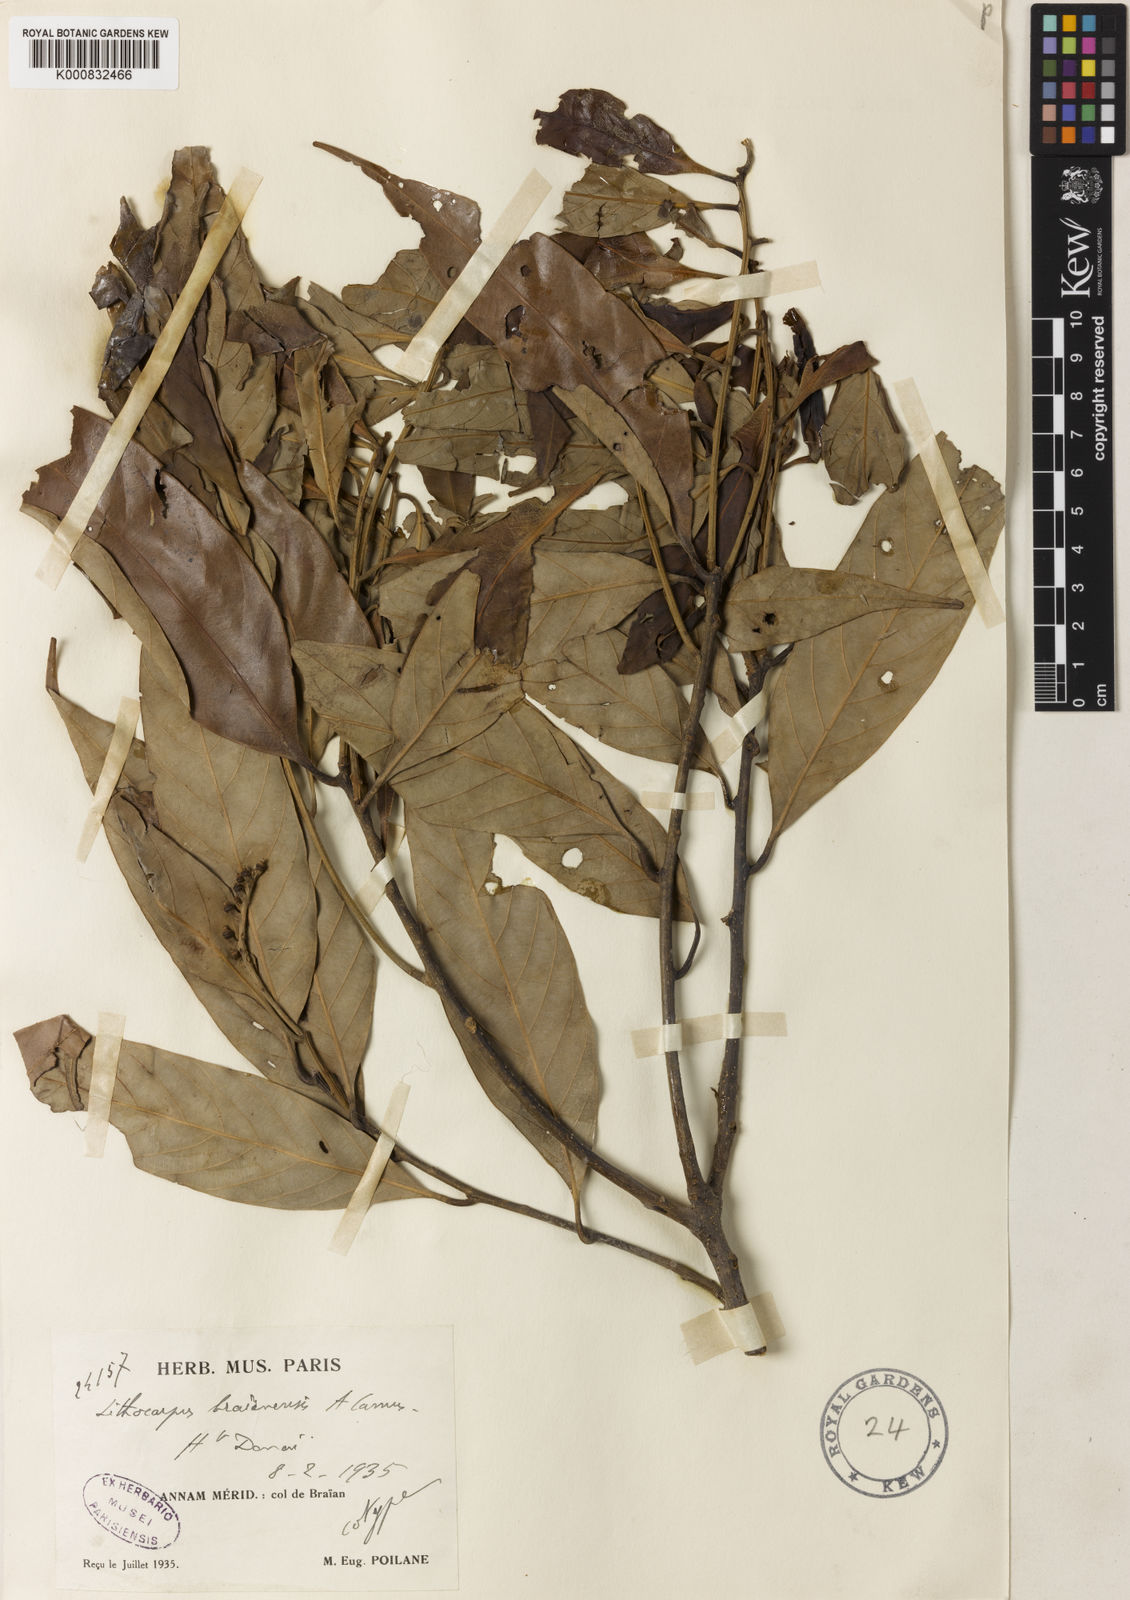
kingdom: Plantae
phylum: Tracheophyta
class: Magnoliopsida
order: Fagales
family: Fagaceae
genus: Lithocarpus
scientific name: Lithocarpus braianensis
